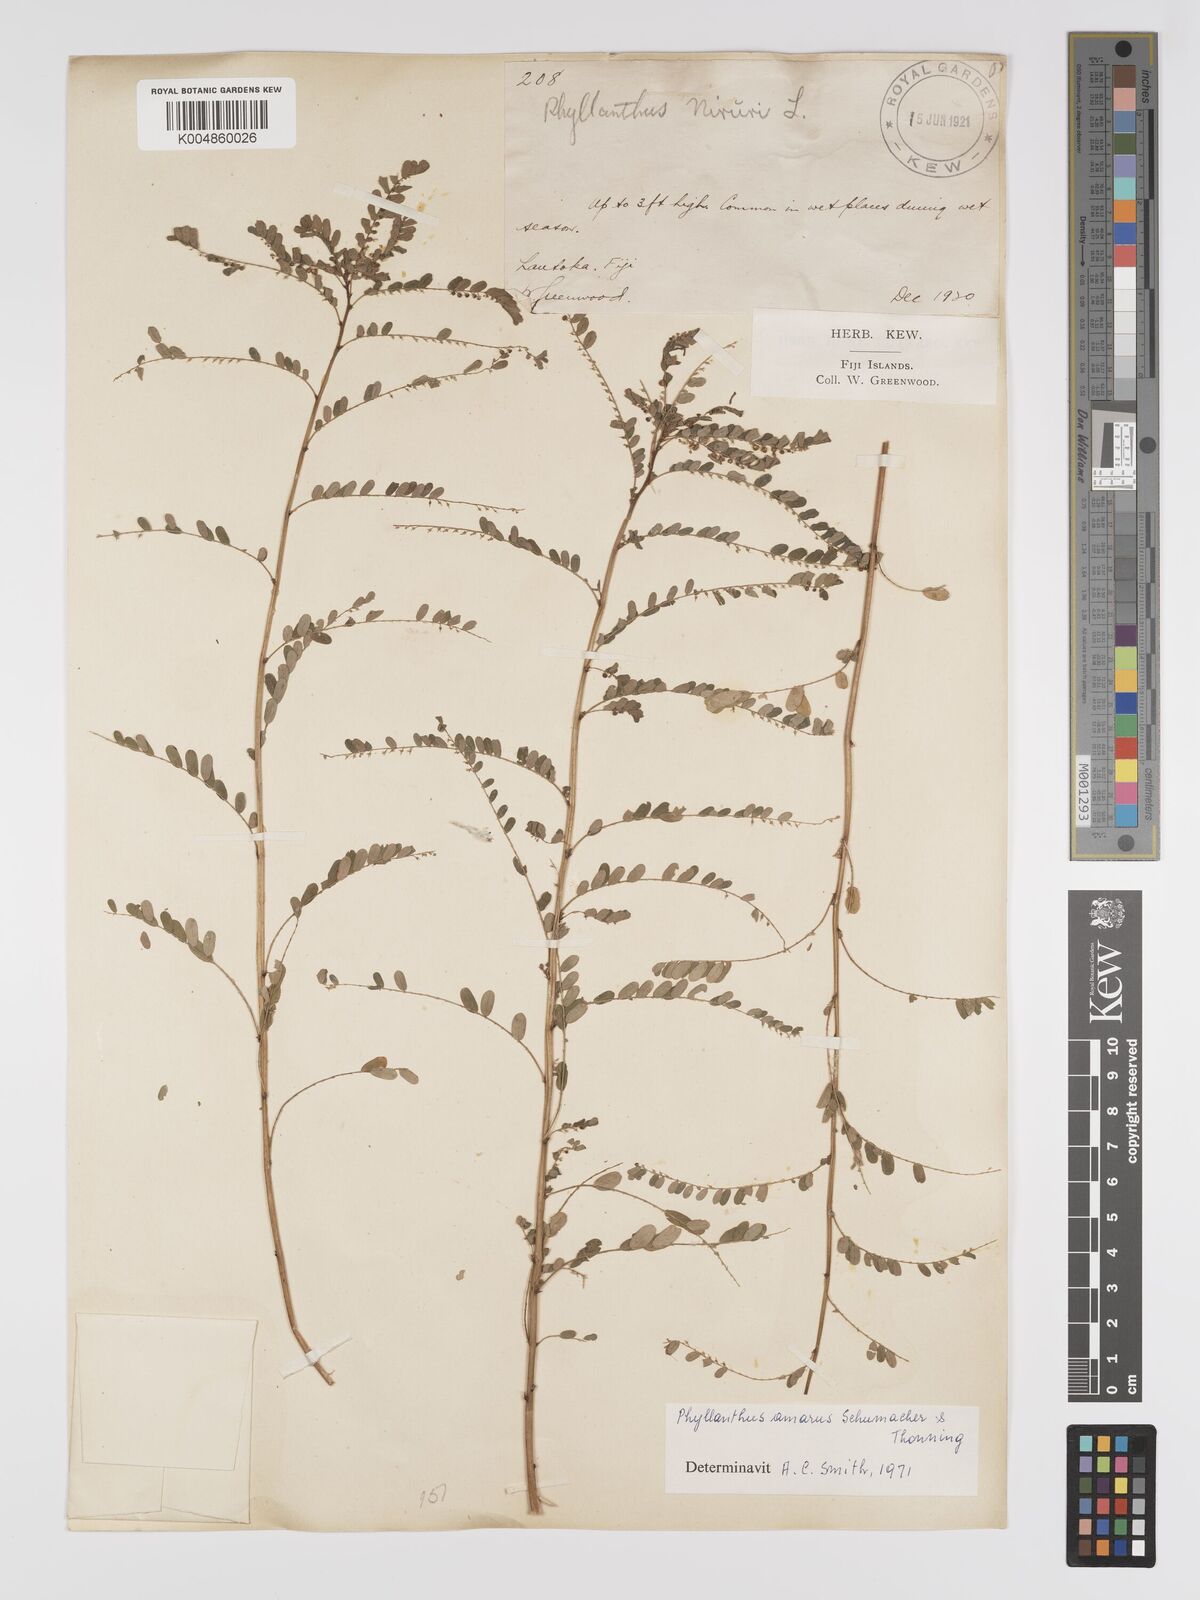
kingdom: Plantae
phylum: Tracheophyta
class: Magnoliopsida
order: Malpighiales
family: Phyllanthaceae
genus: Phyllanthus
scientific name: Phyllanthus amarus
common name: Carry me seed
